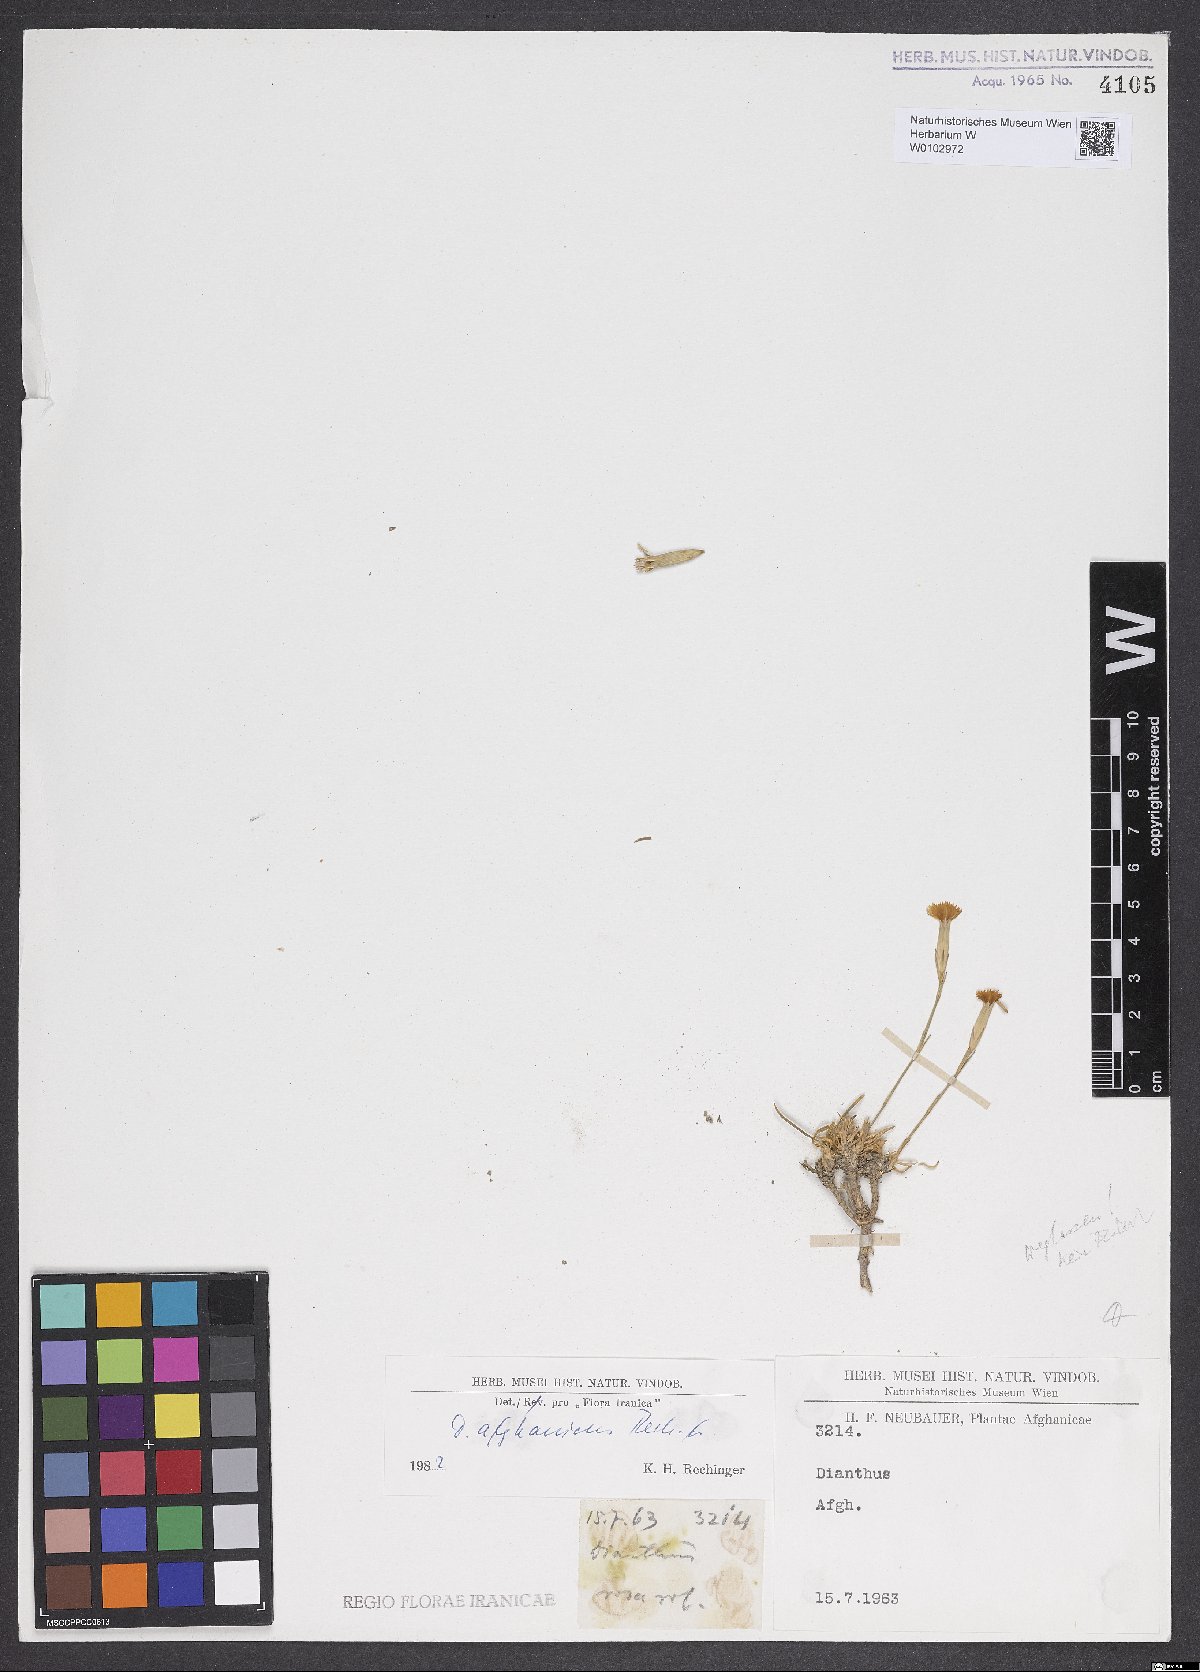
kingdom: Plantae
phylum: Tracheophyta
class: Magnoliopsida
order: Caryophyllales
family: Caryophyllaceae
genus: Dianthus
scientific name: Dianthus afghanicus
